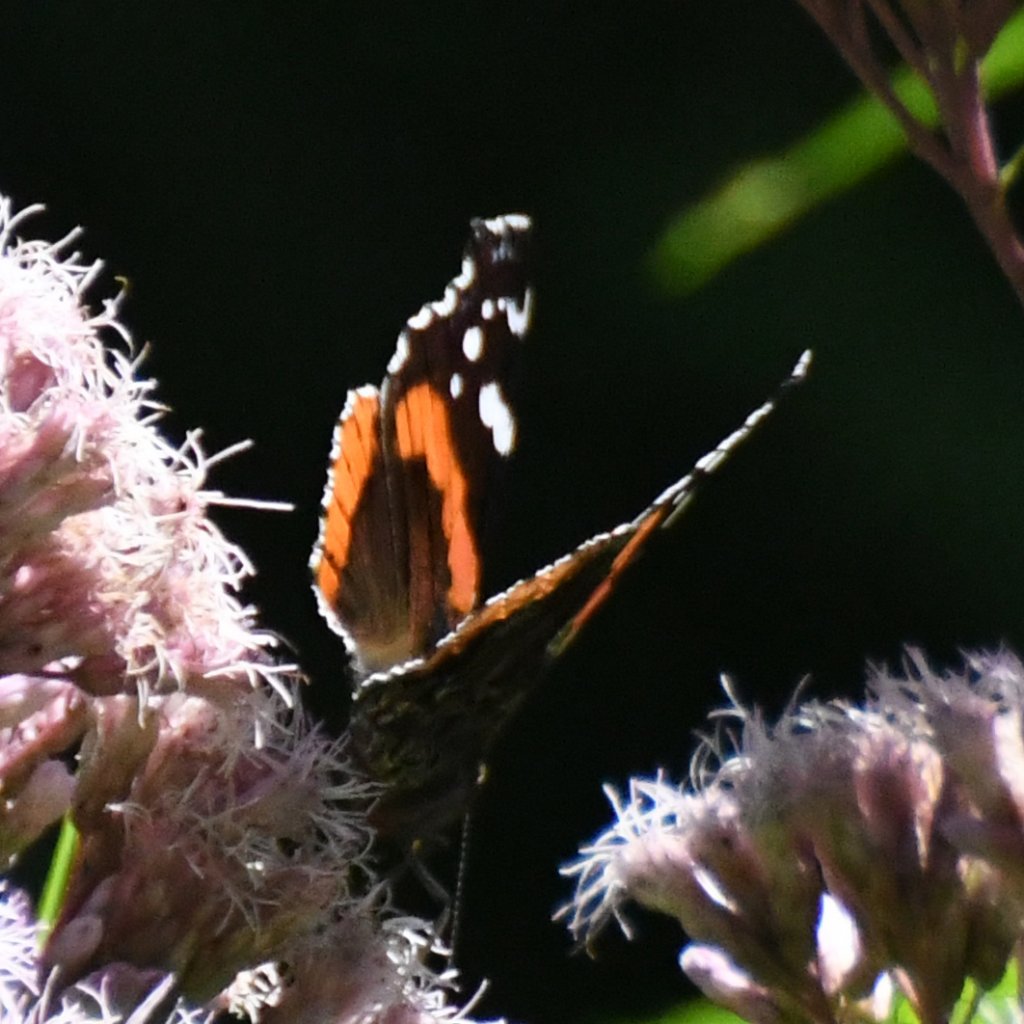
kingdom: Animalia
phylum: Arthropoda
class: Insecta
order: Lepidoptera
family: Nymphalidae
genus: Vanessa
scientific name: Vanessa atalanta
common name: Red Admiral
